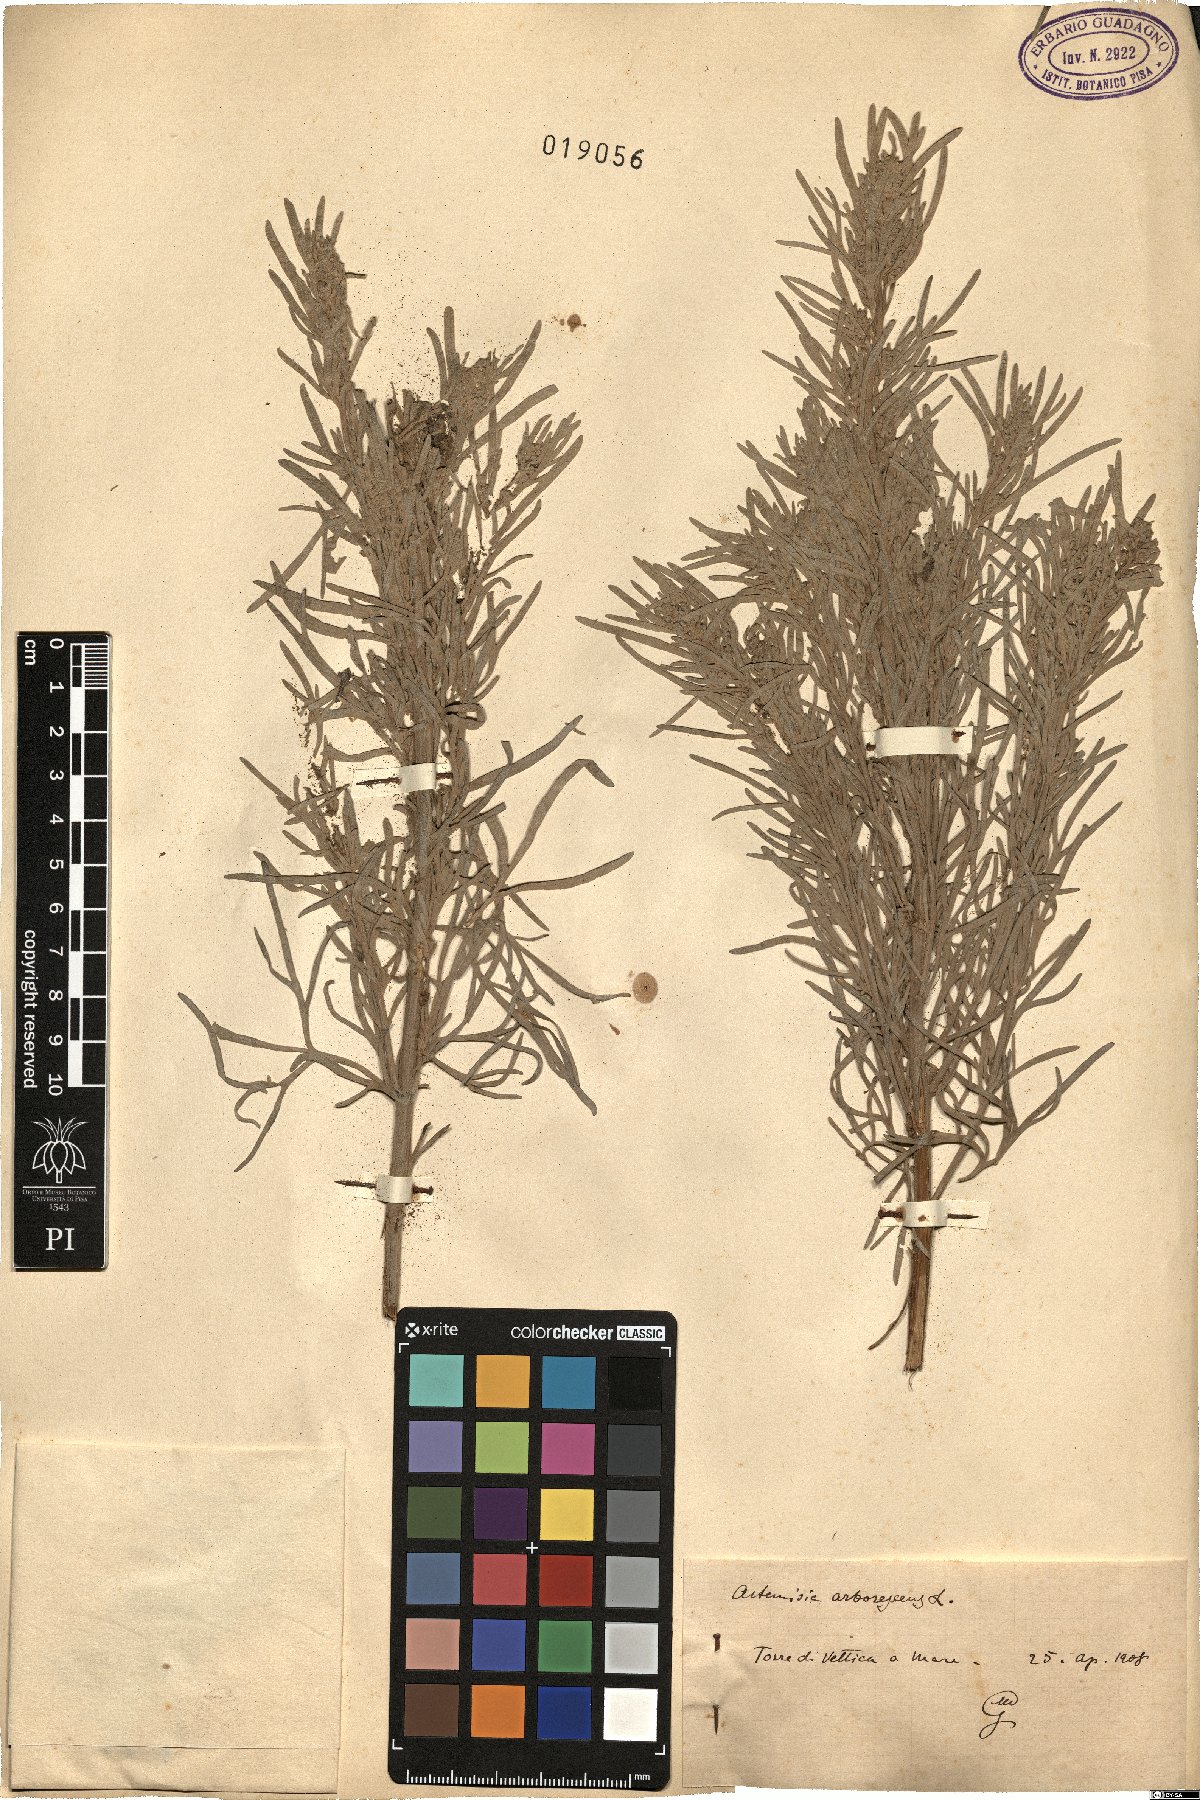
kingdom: Plantae
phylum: Tracheophyta
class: Magnoliopsida
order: Asterales
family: Asteraceae
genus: Artemisia
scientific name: Artemisia arborescens
